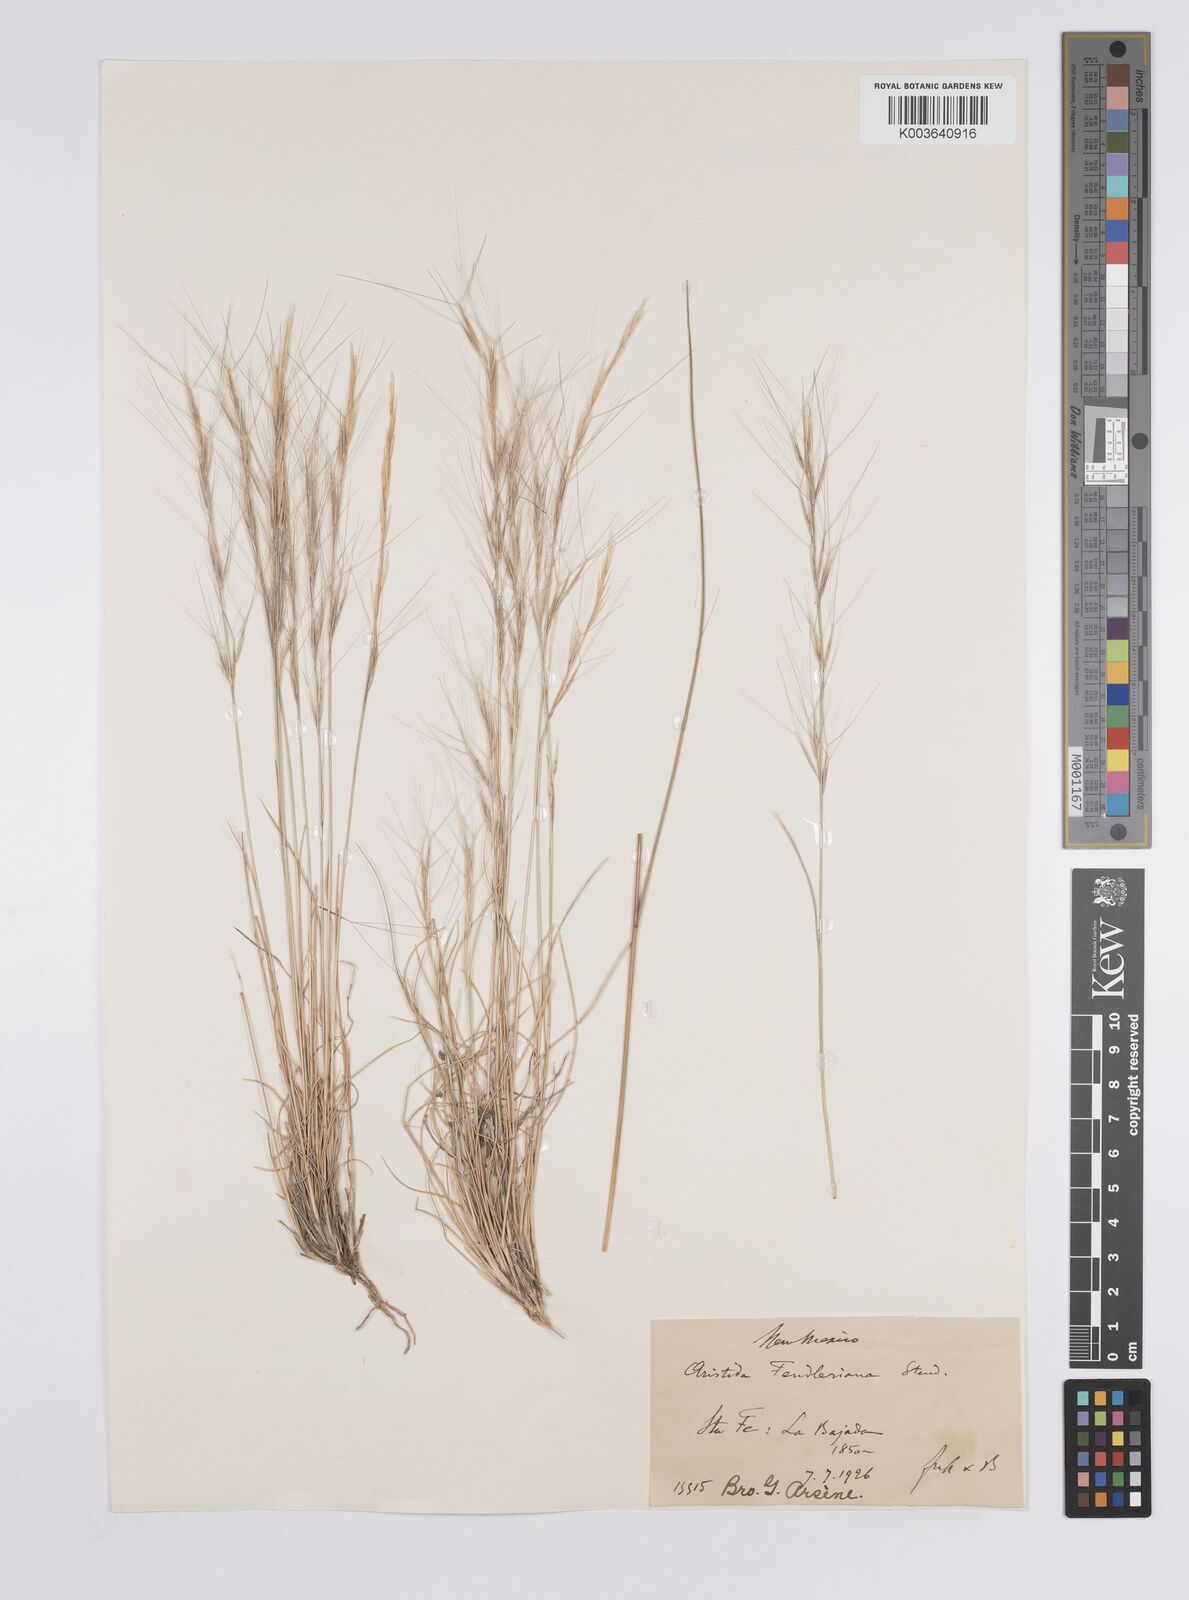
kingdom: Plantae
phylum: Tracheophyta
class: Liliopsida
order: Poales
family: Poaceae
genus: Aristida
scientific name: Aristida purpurea
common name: Purple threeawn
